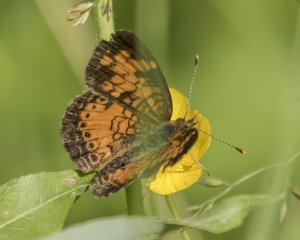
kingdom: Animalia
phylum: Arthropoda
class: Insecta
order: Lepidoptera
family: Nymphalidae
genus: Phyciodes
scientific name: Phyciodes tharos
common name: Northern Crescent
